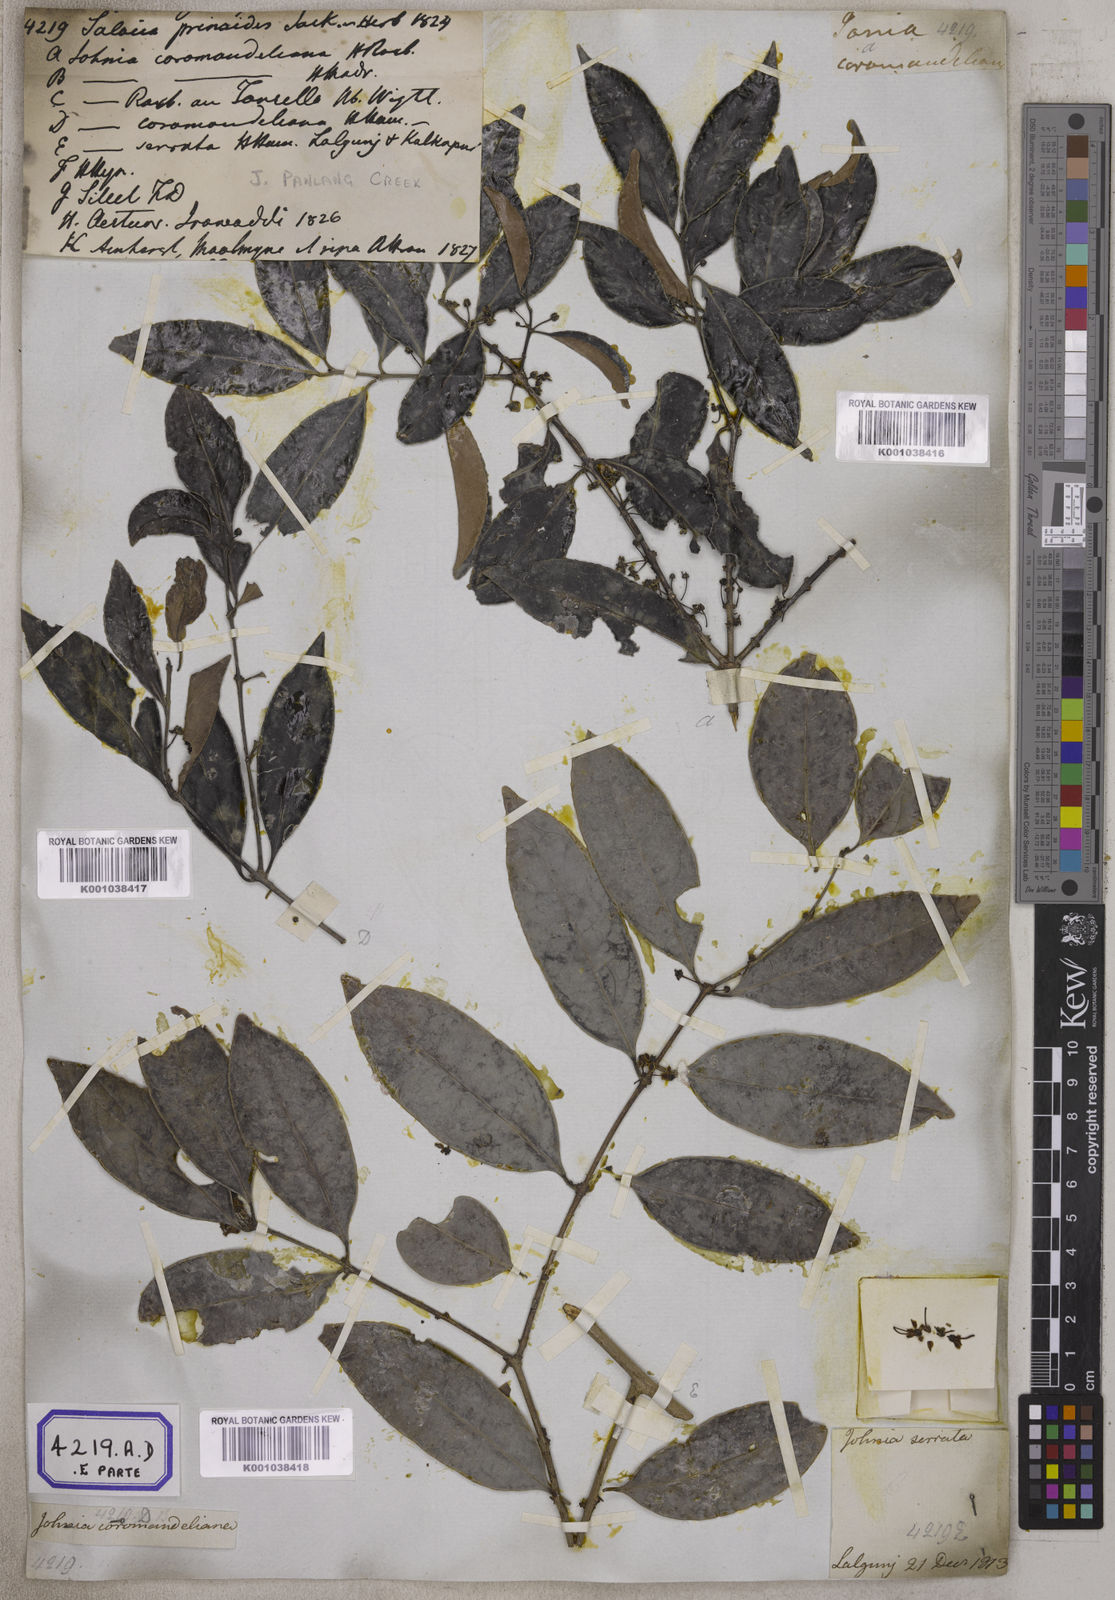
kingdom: Plantae
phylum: Tracheophyta
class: Magnoliopsida
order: Celastrales
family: Celastraceae
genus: Salacia
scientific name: Salacia chinensis
